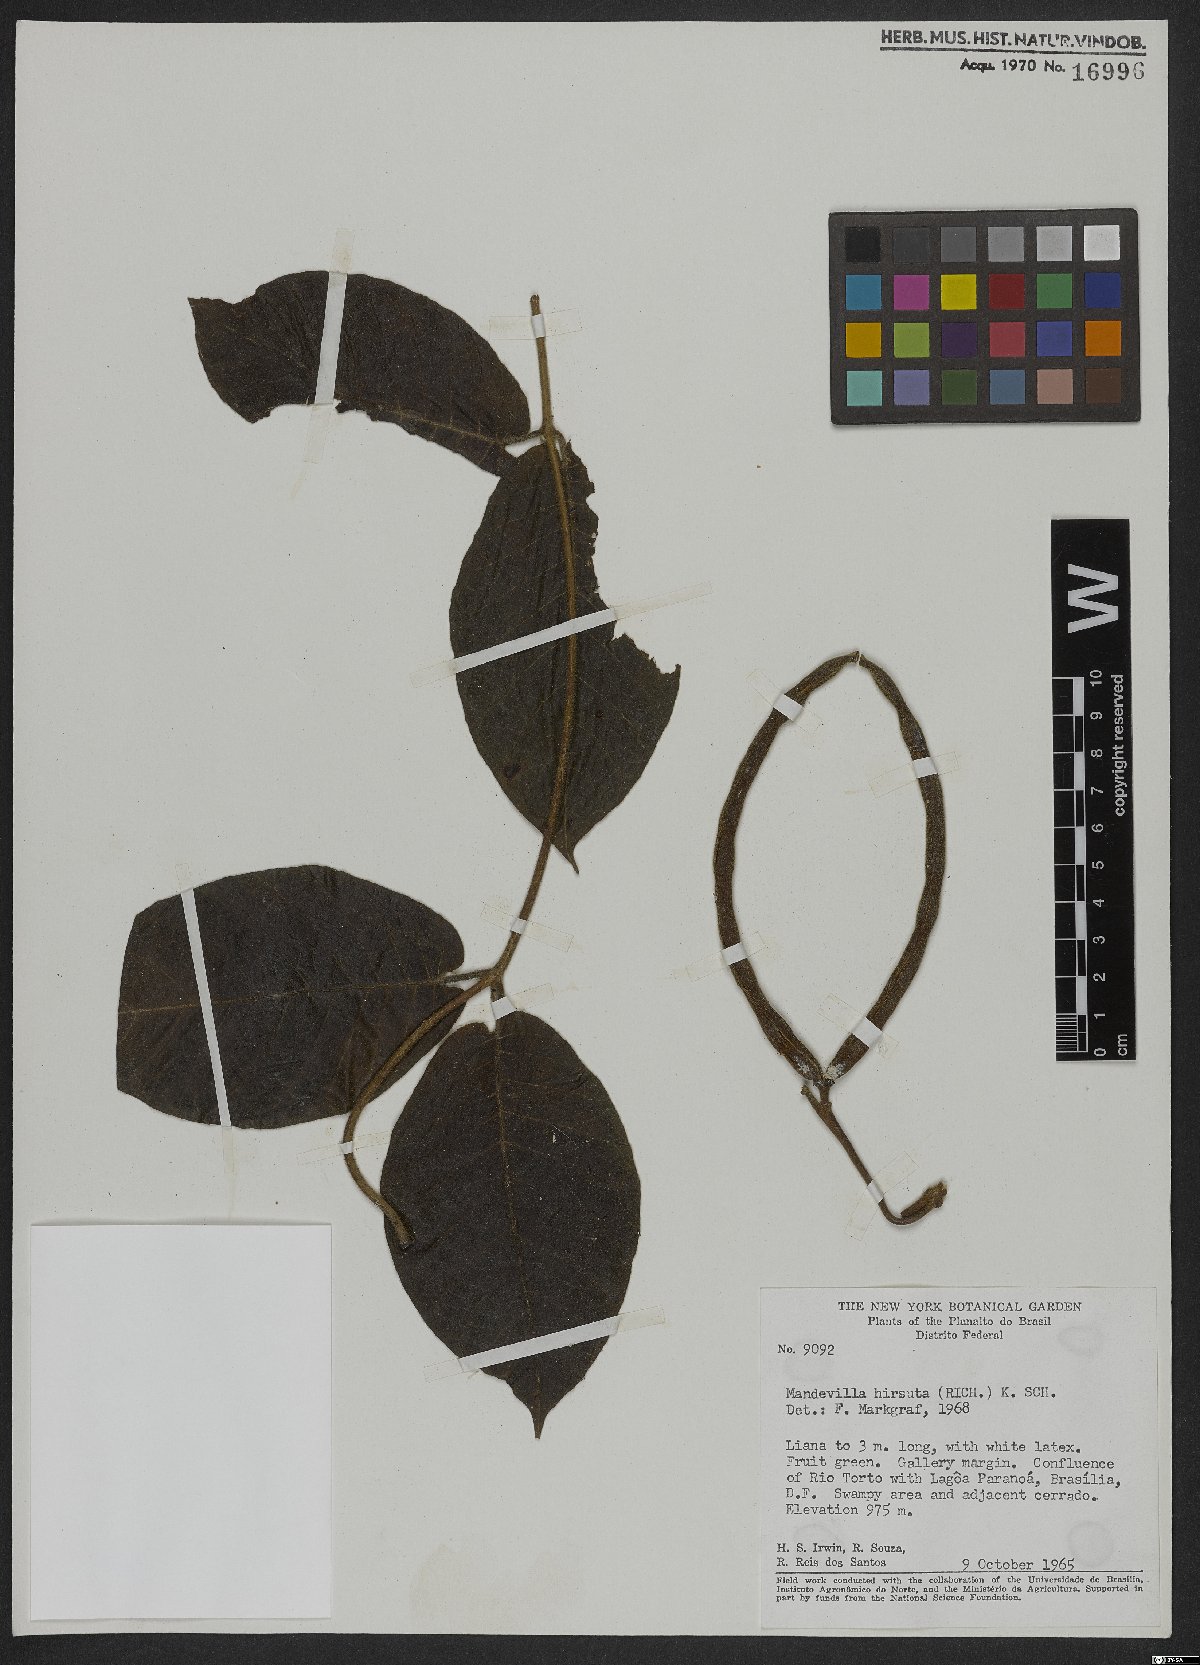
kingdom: Plantae
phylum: Tracheophyta
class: Magnoliopsida
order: Gentianales
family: Apocynaceae
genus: Mandevilla
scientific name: Mandevilla hirsuta
